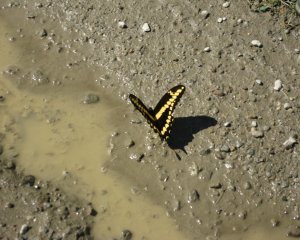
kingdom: Animalia
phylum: Arthropoda
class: Insecta
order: Lepidoptera
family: Papilionidae
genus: Papilio
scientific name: Papilio cresphontes
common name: Eastern Giant Swallowtail
